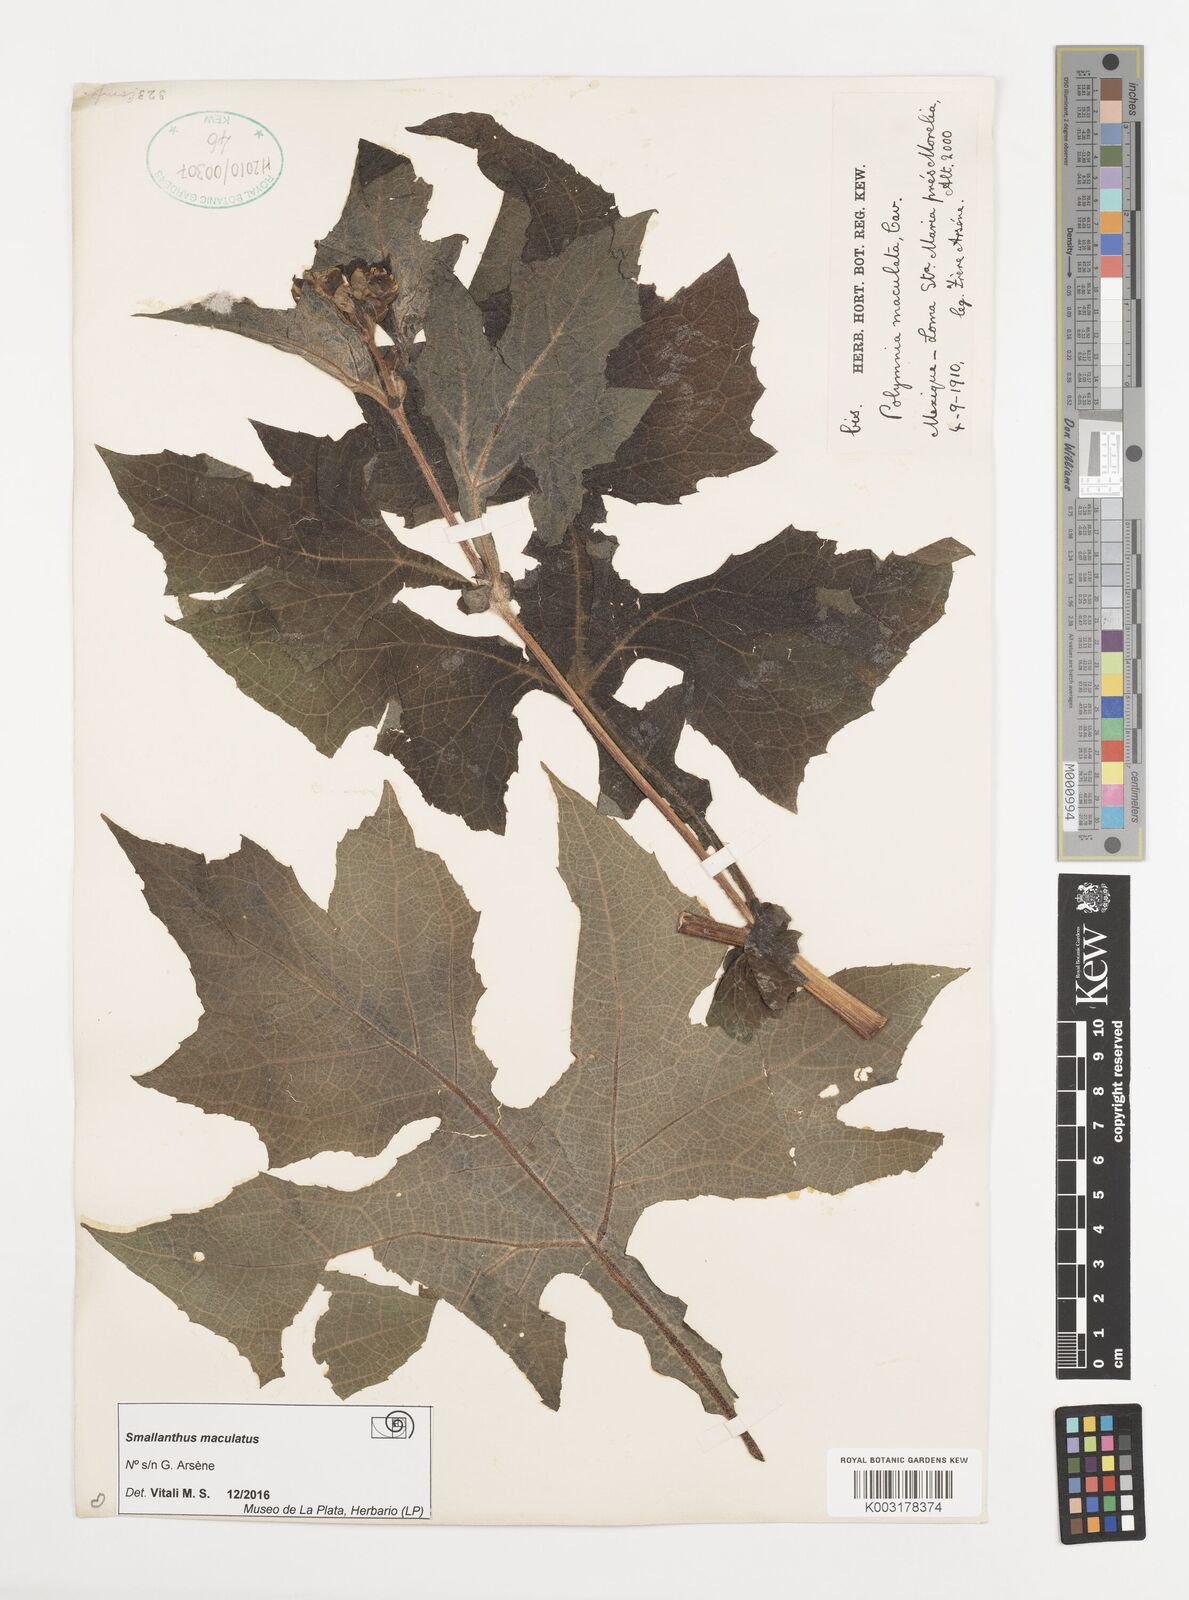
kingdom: Plantae
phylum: Tracheophyta
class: Magnoliopsida
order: Asterales
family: Asteraceae
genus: Smallanthus
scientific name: Smallanthus maculatus
